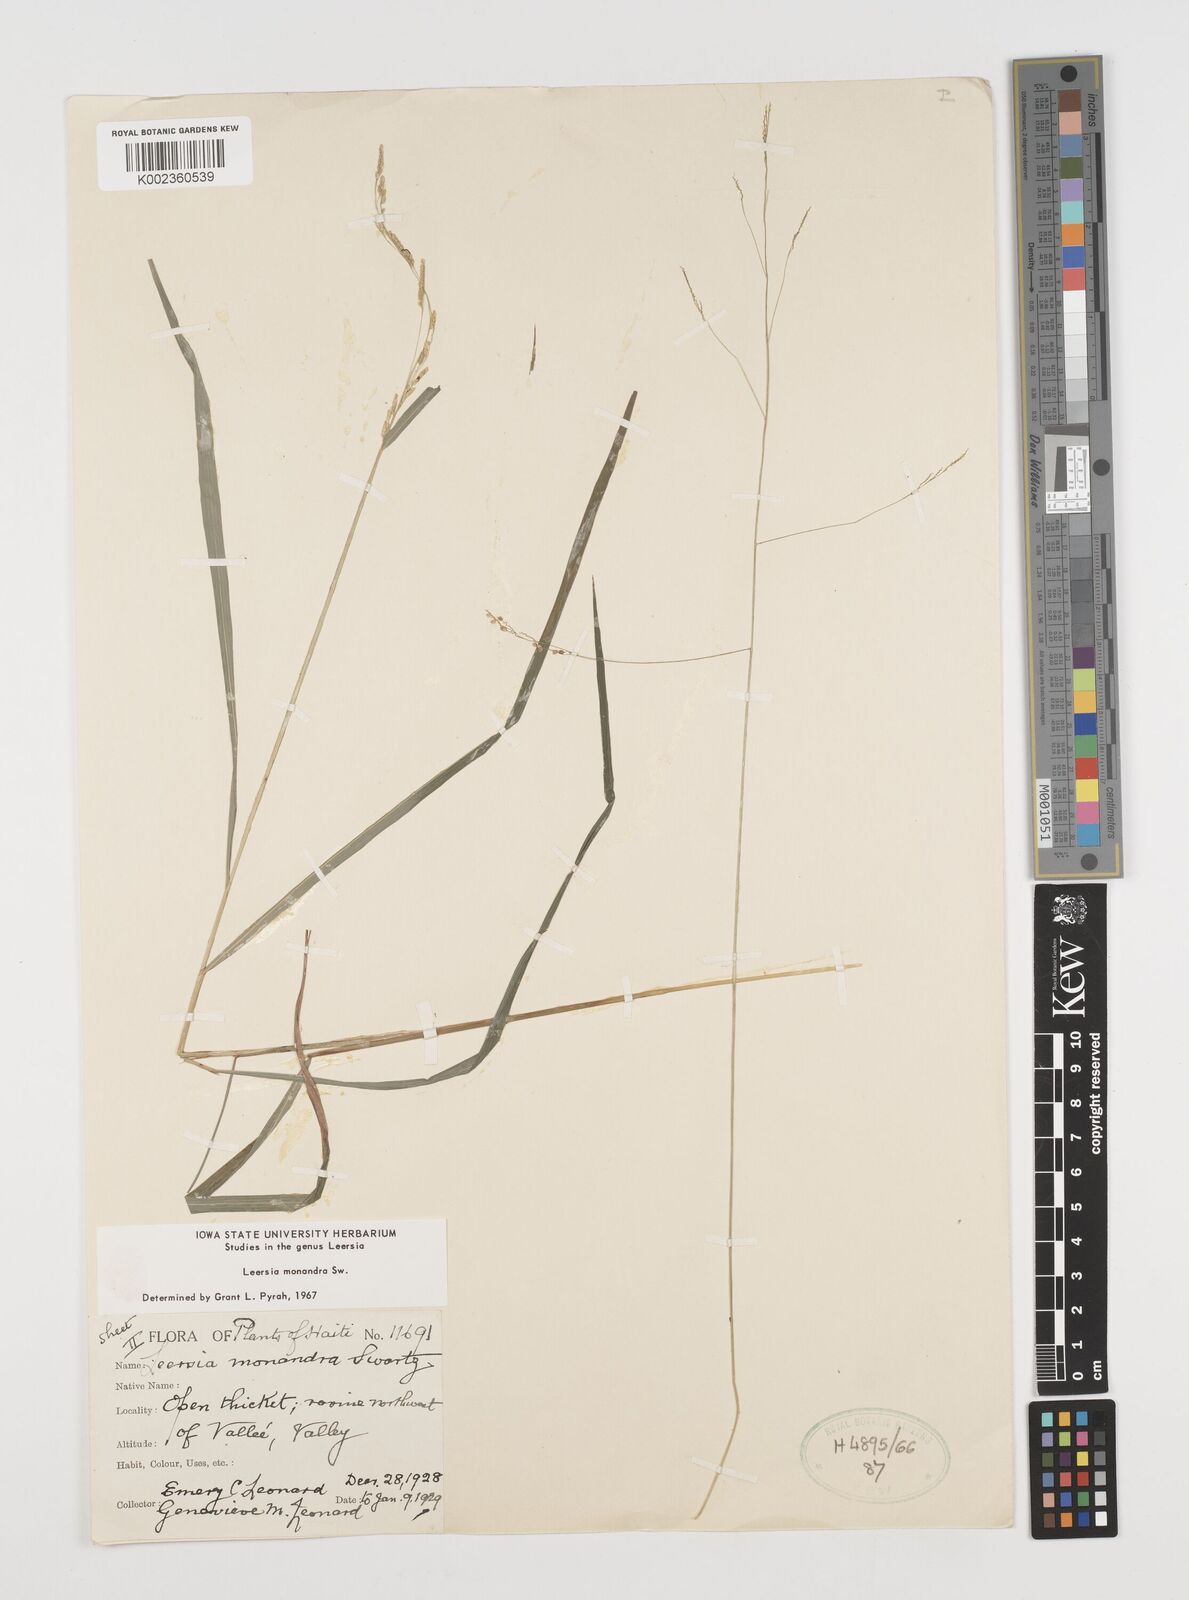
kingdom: Plantae
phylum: Tracheophyta
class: Liliopsida
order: Poales
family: Poaceae
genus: Leersia
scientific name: Leersia hexandra
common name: Southern cut grass
